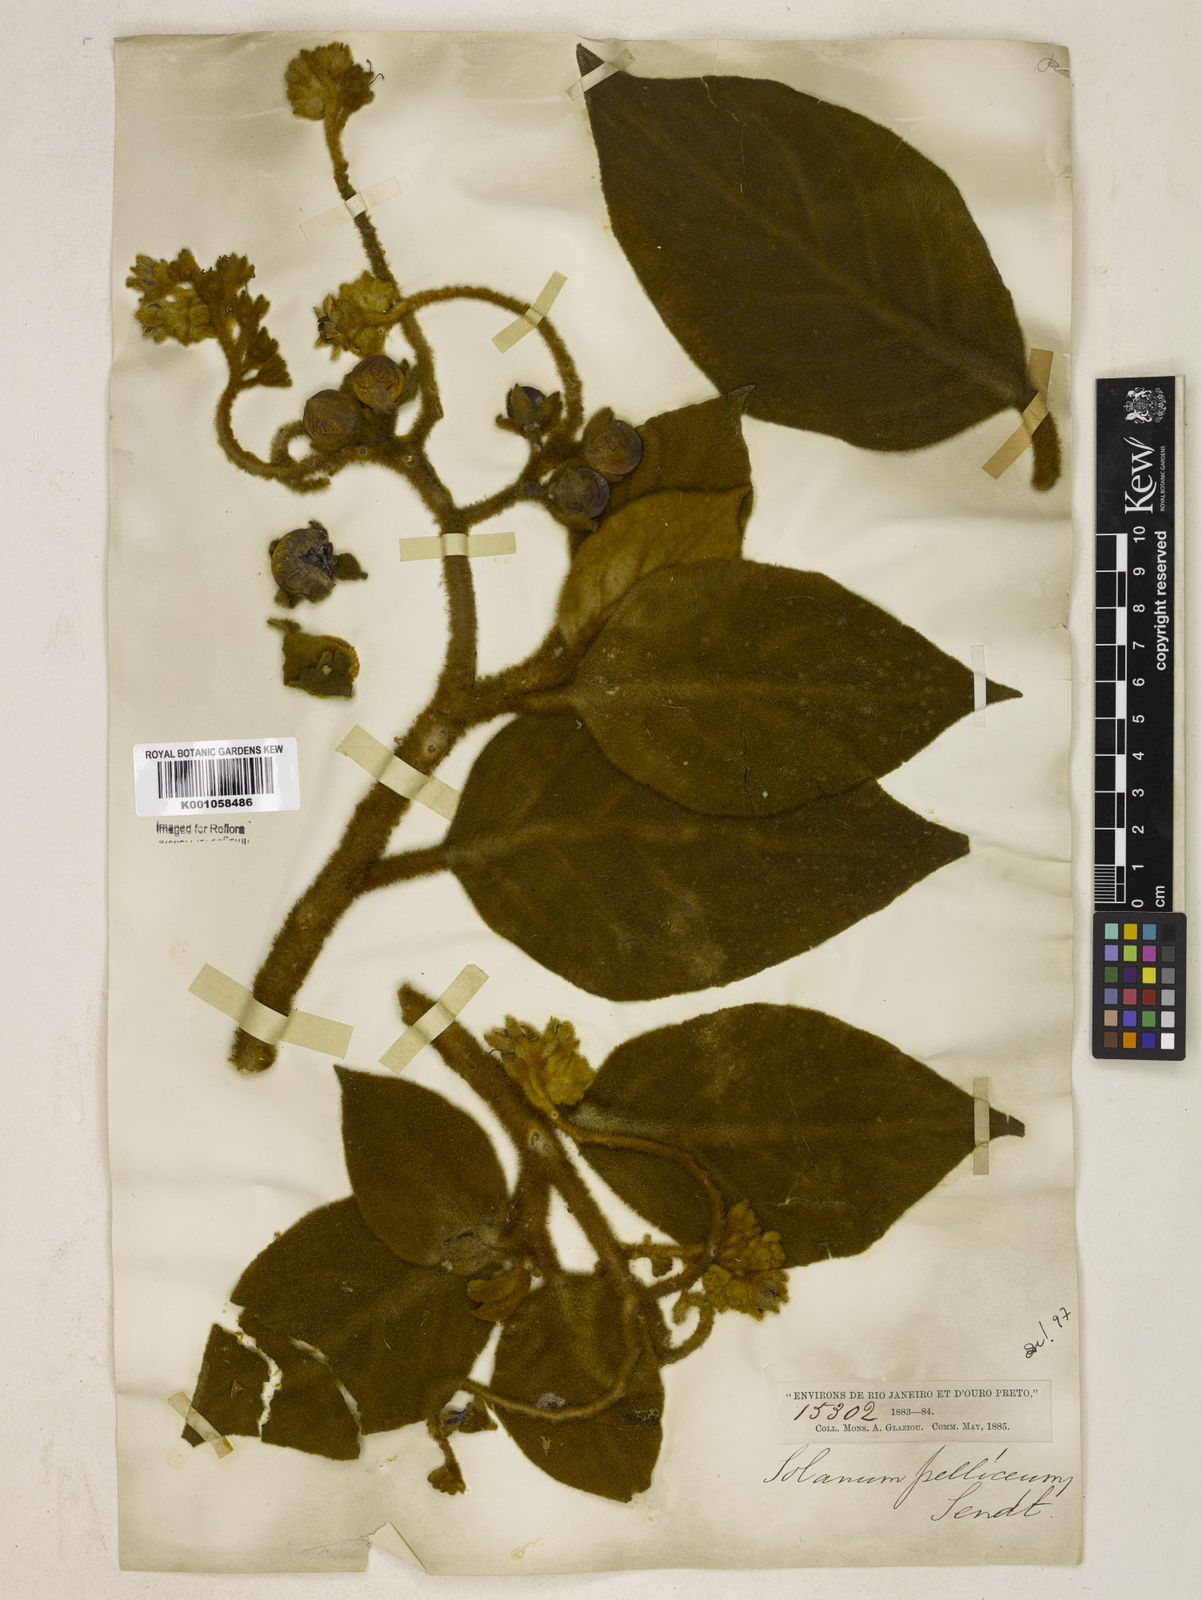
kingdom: Plantae
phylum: Tracheophyta
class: Magnoliopsida
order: Solanales
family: Solanaceae
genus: Solanum
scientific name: Solanum velleum
